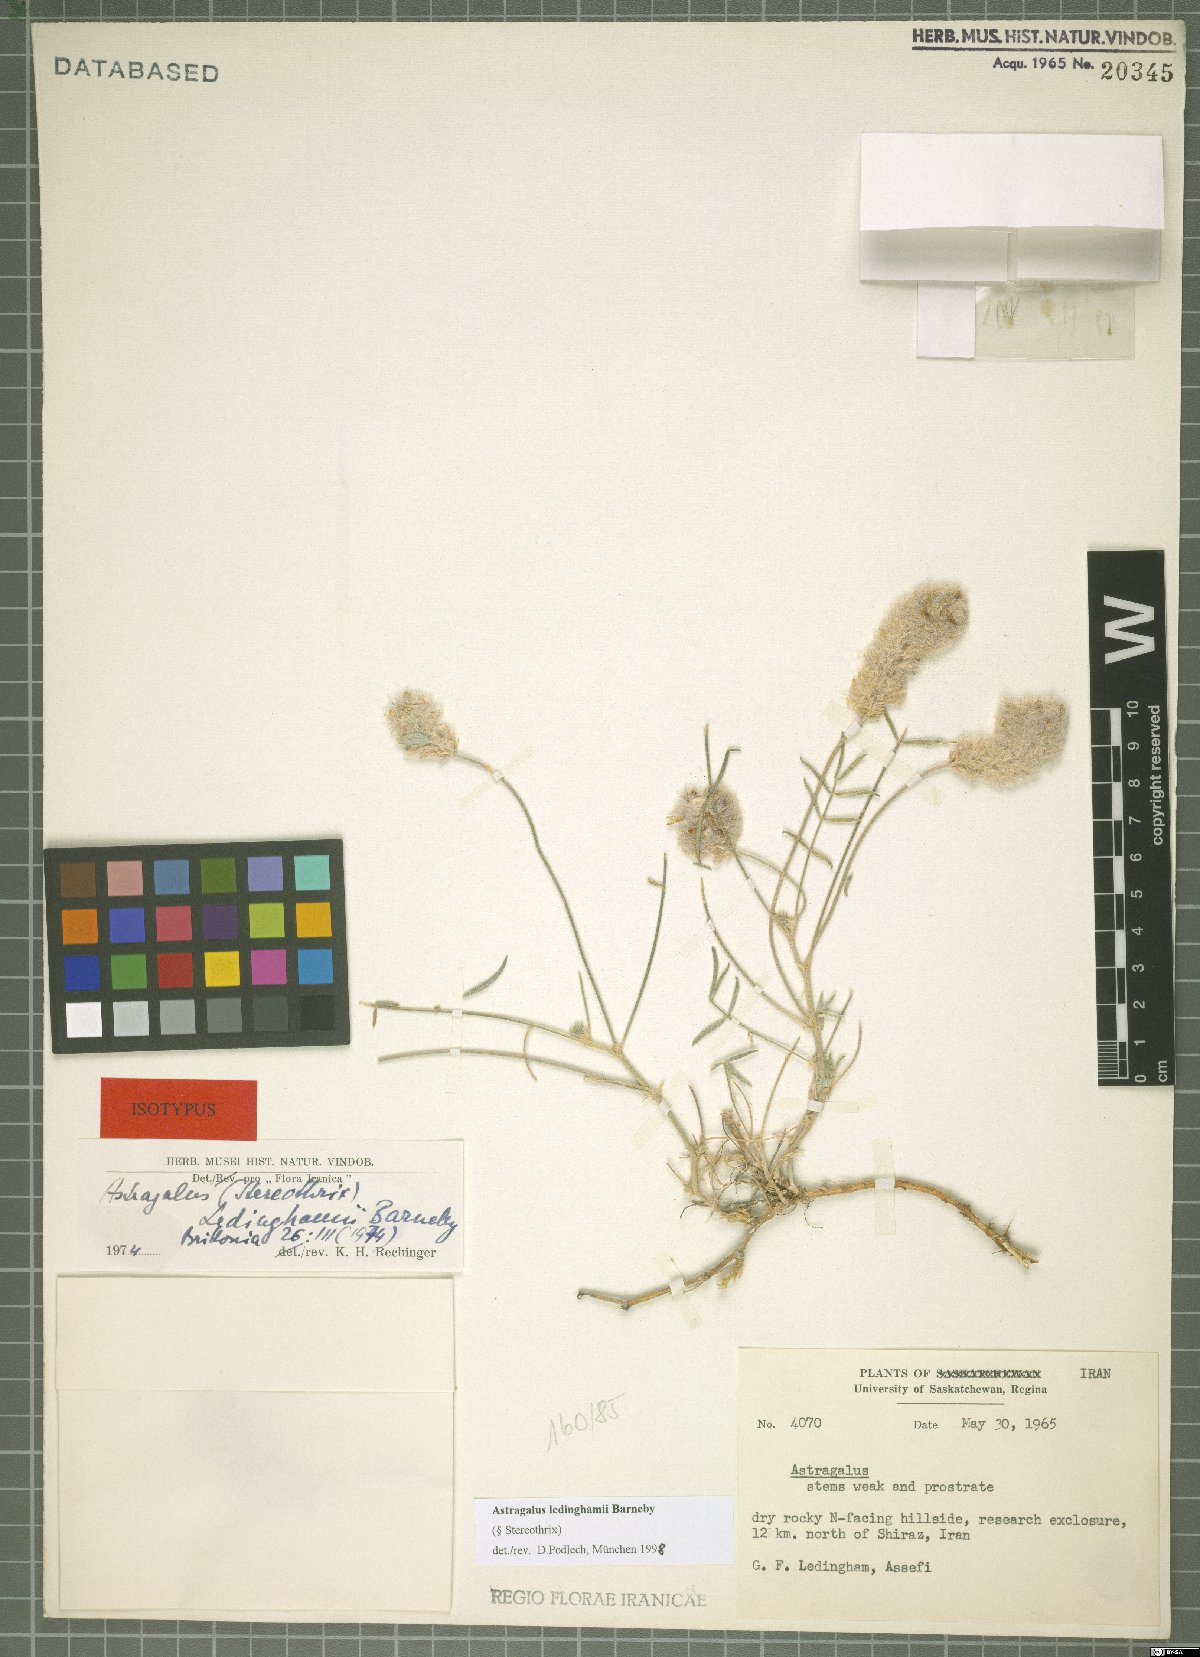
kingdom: Plantae
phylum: Tracheophyta
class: Magnoliopsida
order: Fabales
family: Fabaceae
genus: Astragalus
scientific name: Astragalus ledinghamii
